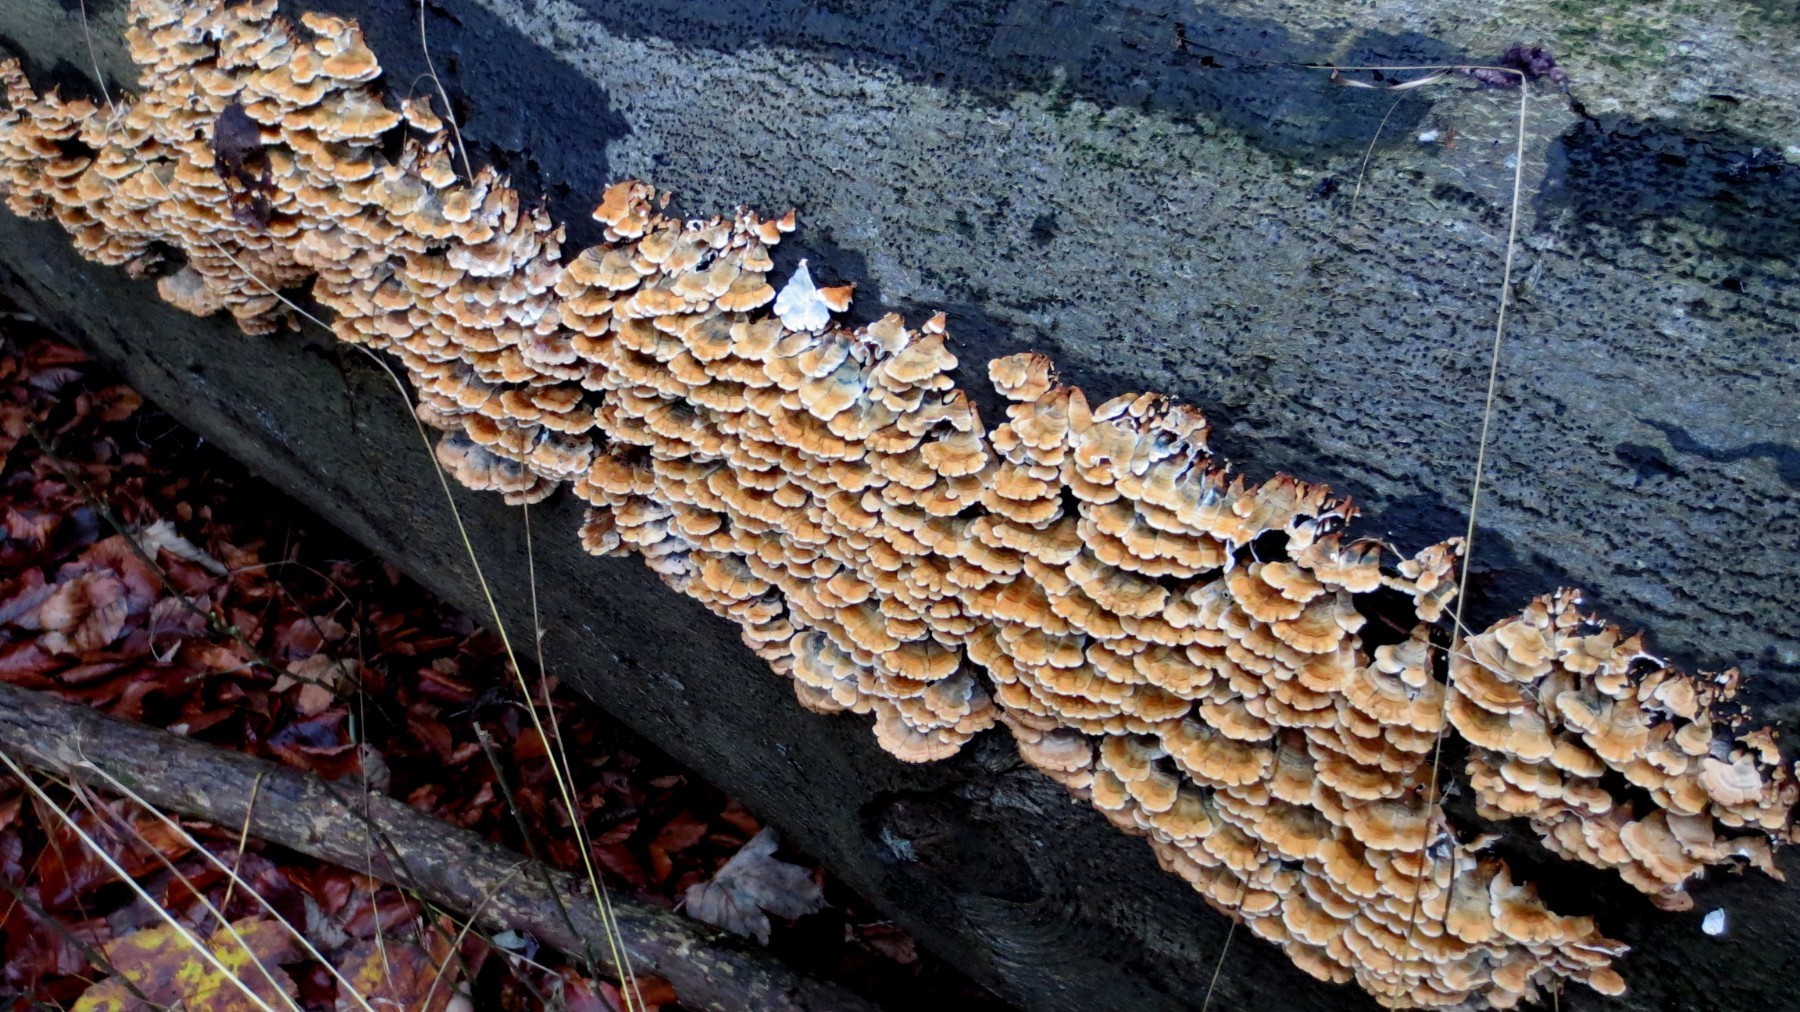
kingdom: Fungi
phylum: Basidiomycota
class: Agaricomycetes
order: Amylocorticiales
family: Amylocorticiaceae
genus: Plicaturopsis
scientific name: Plicaturopsis crispa
